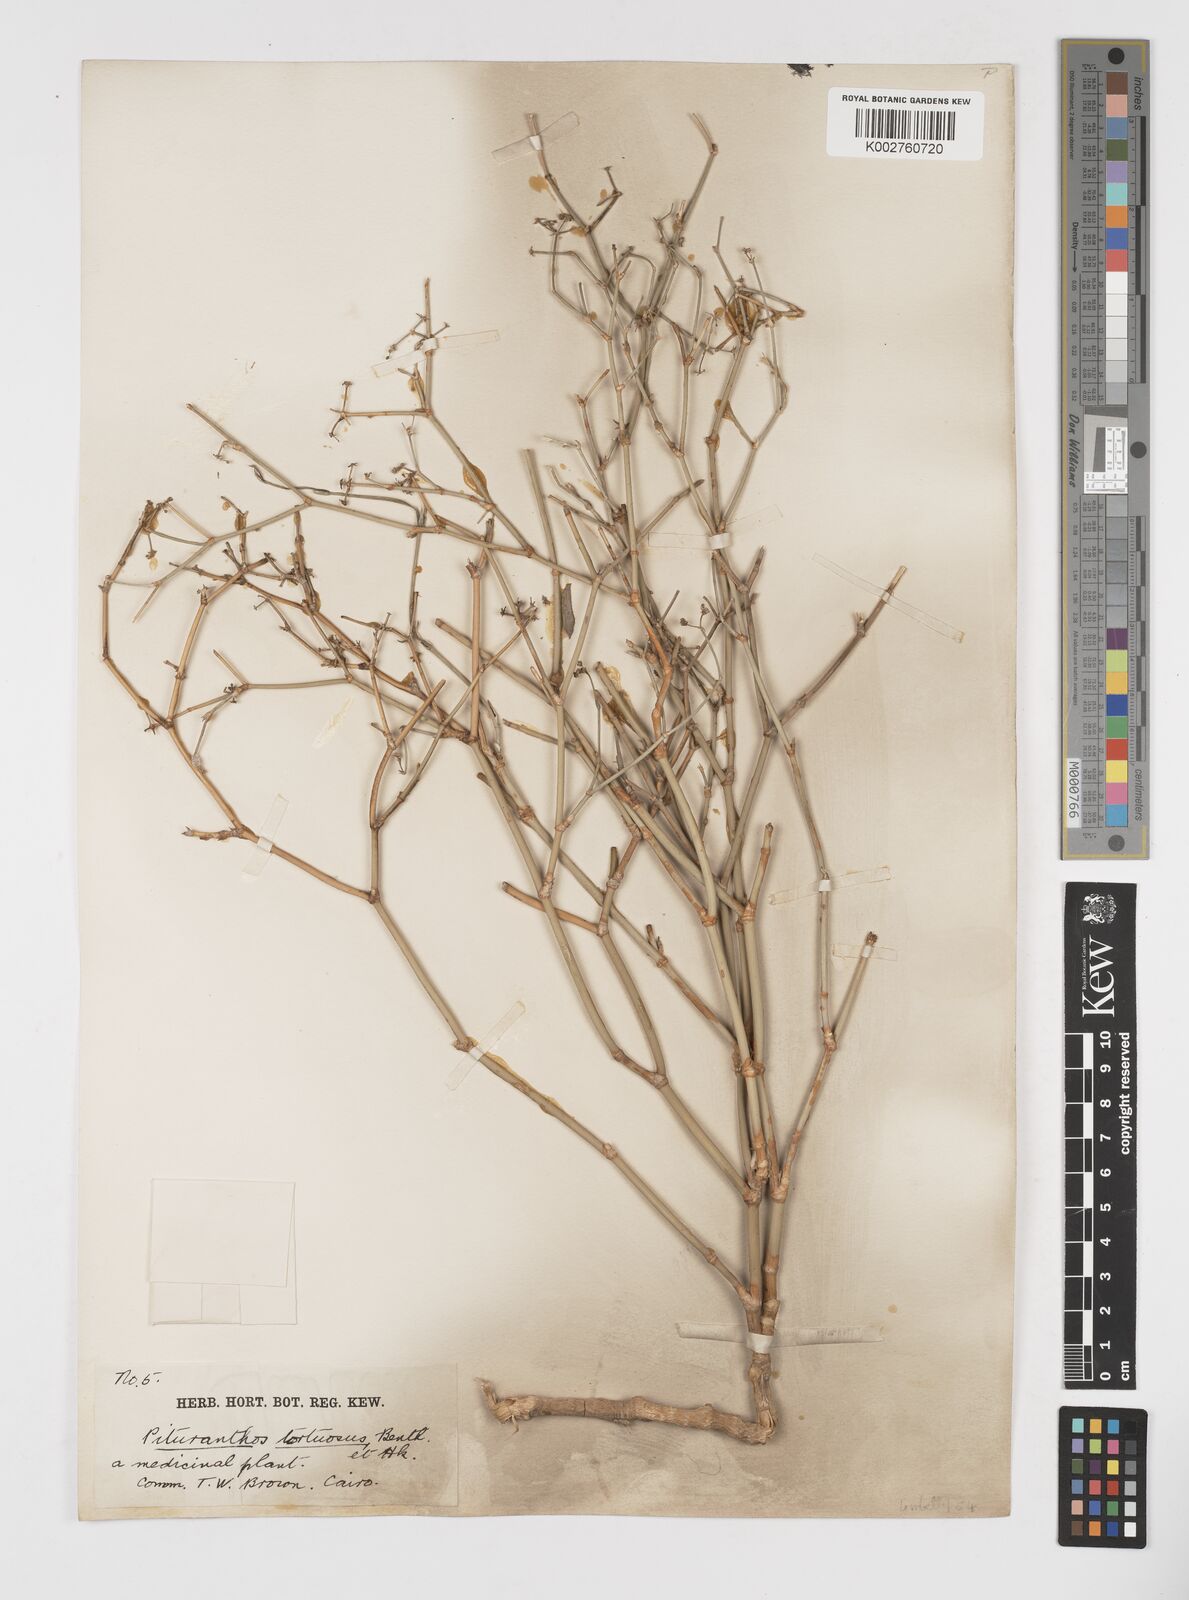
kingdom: Plantae
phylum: Tracheophyta
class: Magnoliopsida
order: Apiales
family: Apiaceae
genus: Deverra
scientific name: Deverra tortuosa
